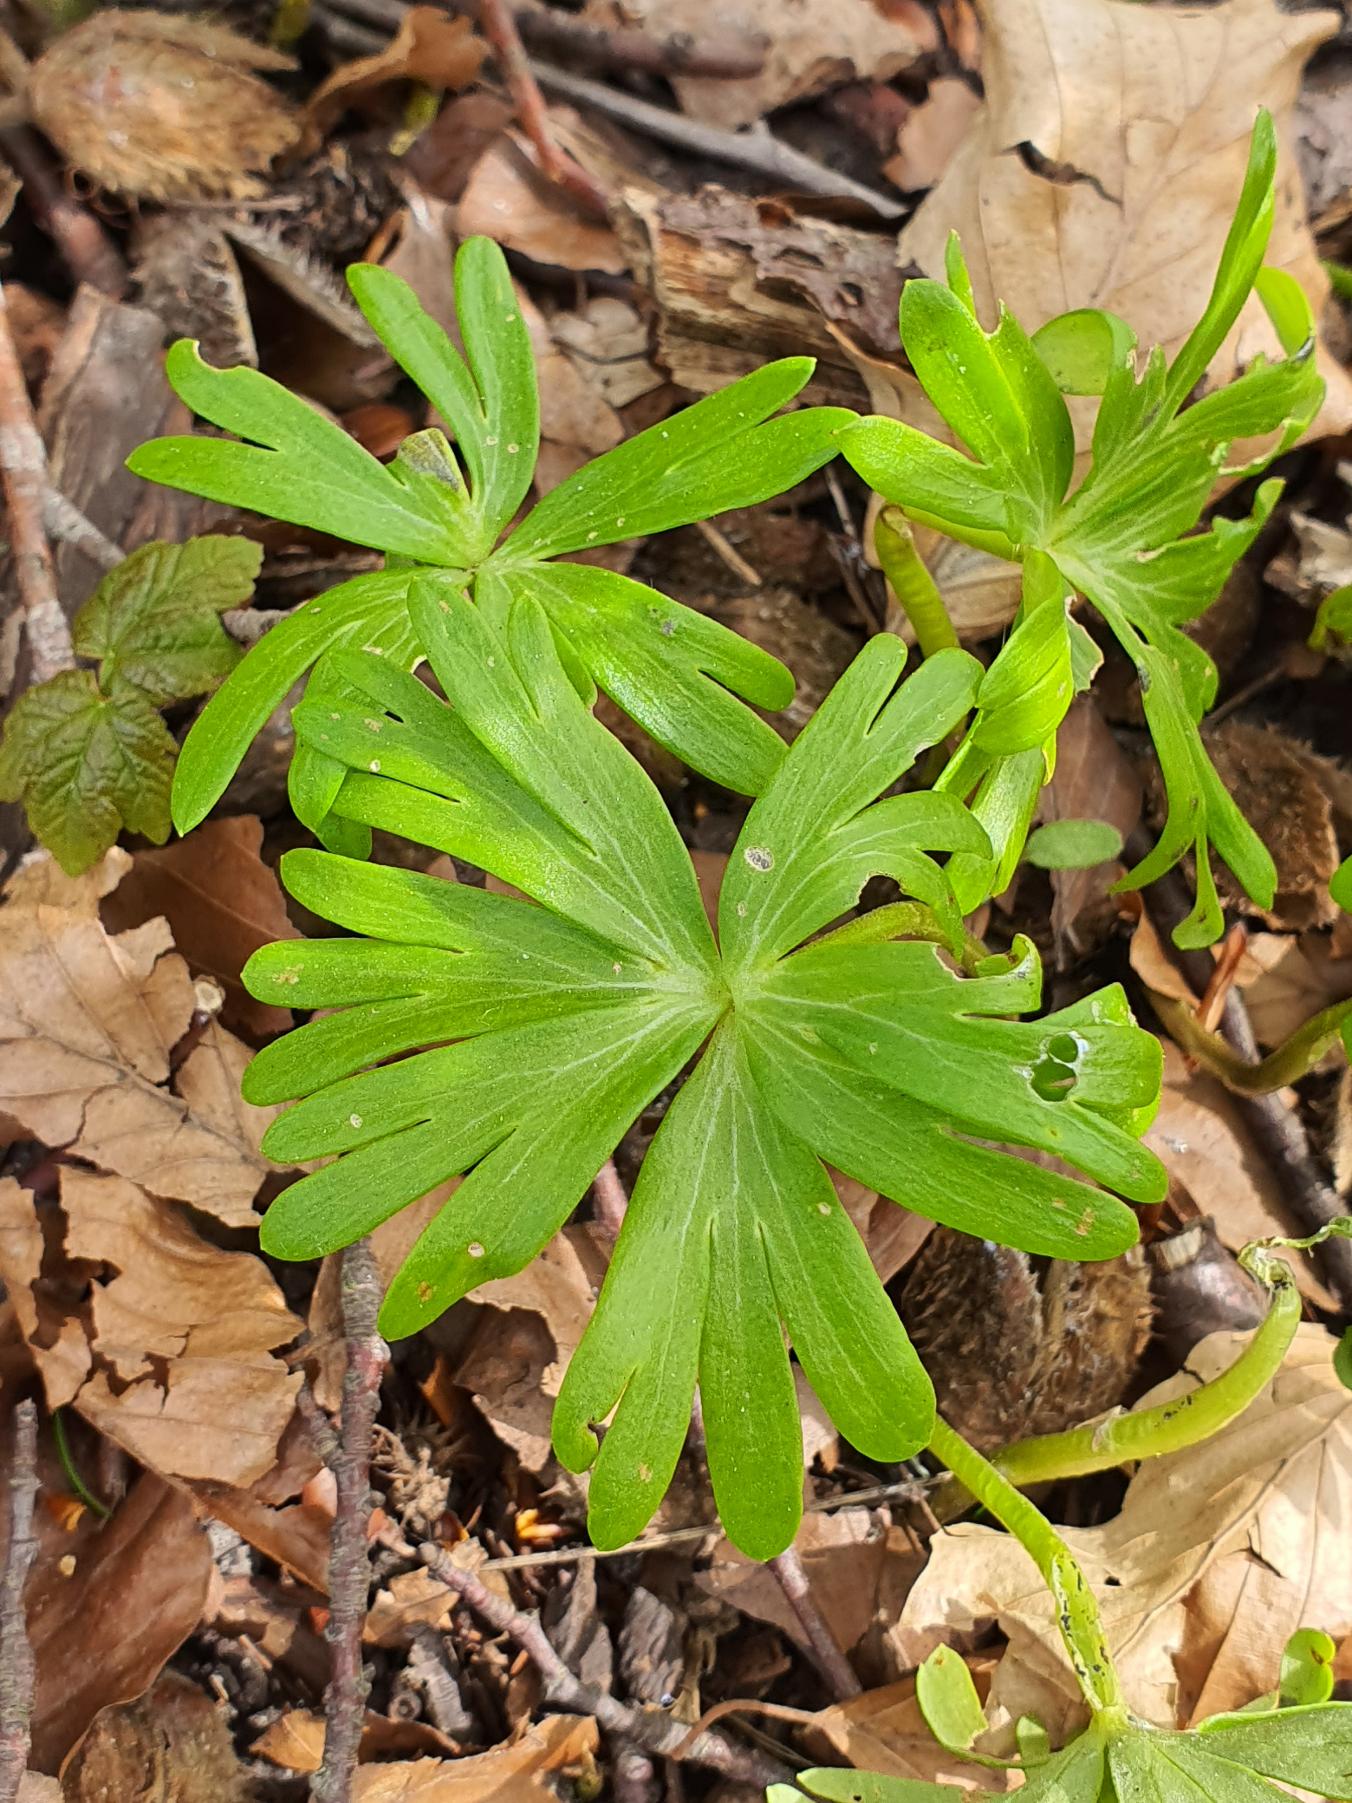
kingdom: Plantae
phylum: Tracheophyta
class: Magnoliopsida
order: Ranunculales
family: Ranunculaceae
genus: Eranthis
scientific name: Eranthis hyemalis
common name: Erantis
